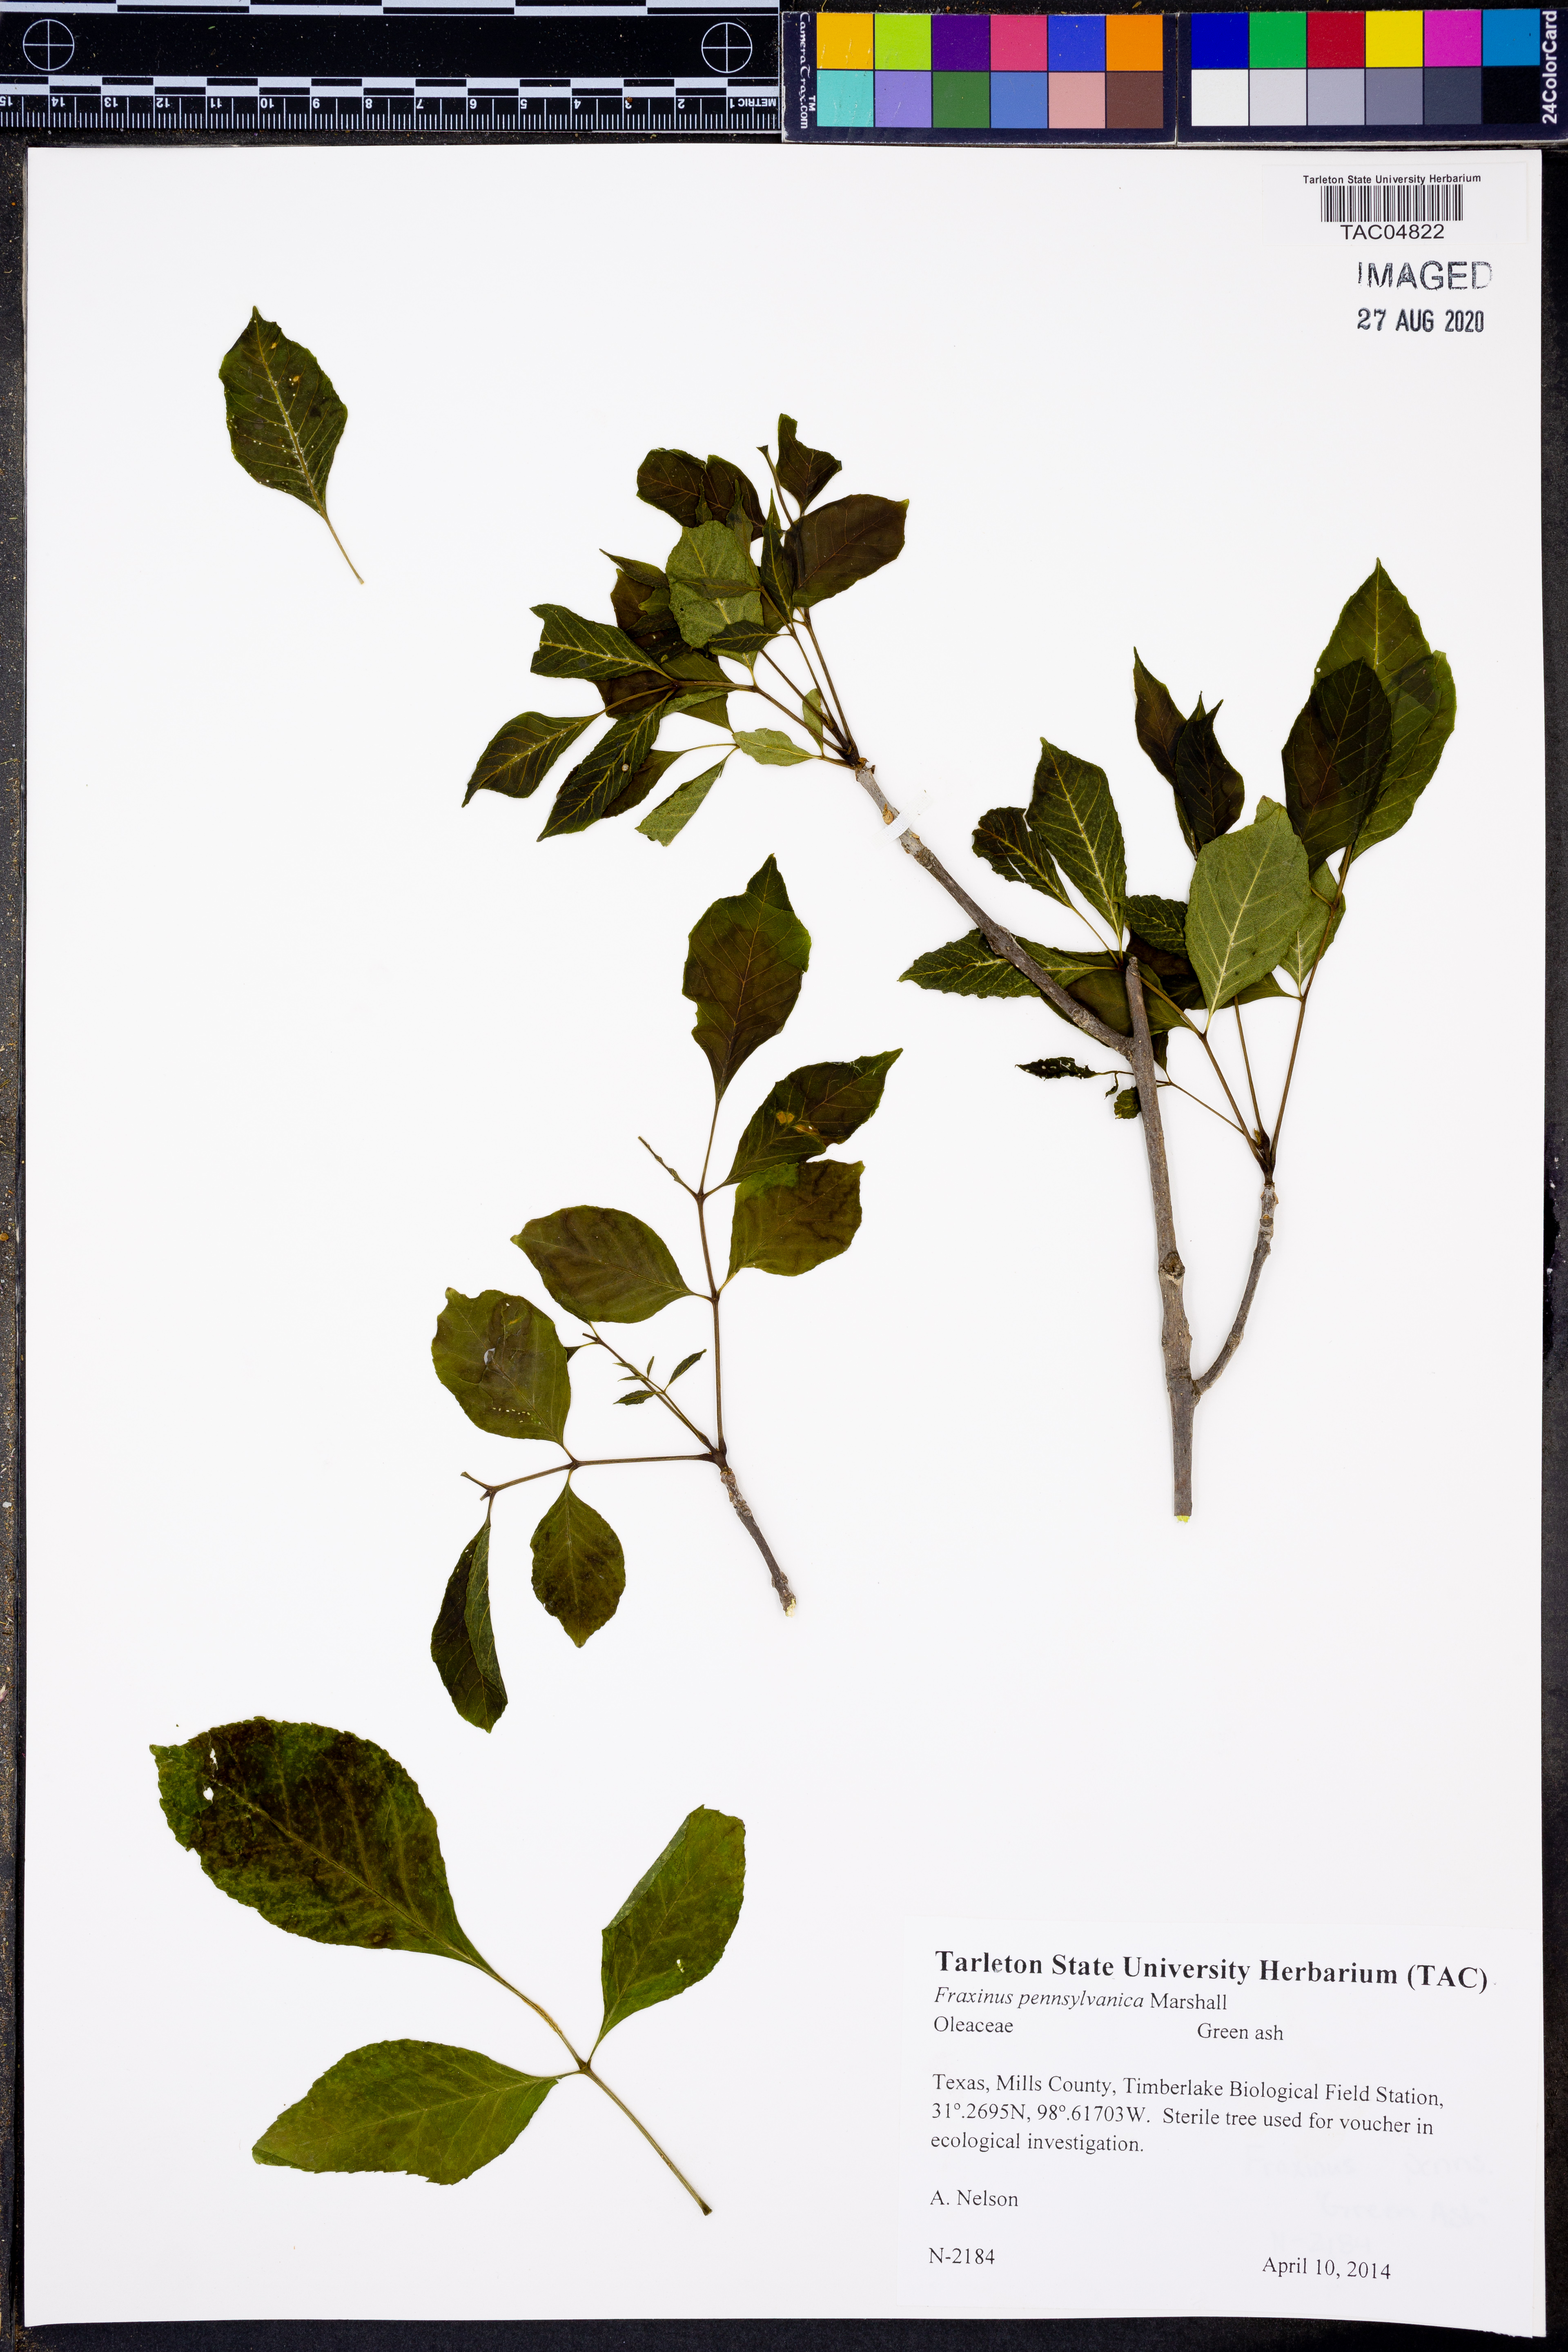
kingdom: Plantae
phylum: Tracheophyta
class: Magnoliopsida
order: Lamiales
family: Oleaceae
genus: Fraxinus
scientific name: Fraxinus pennsylvanica
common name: Green ash
